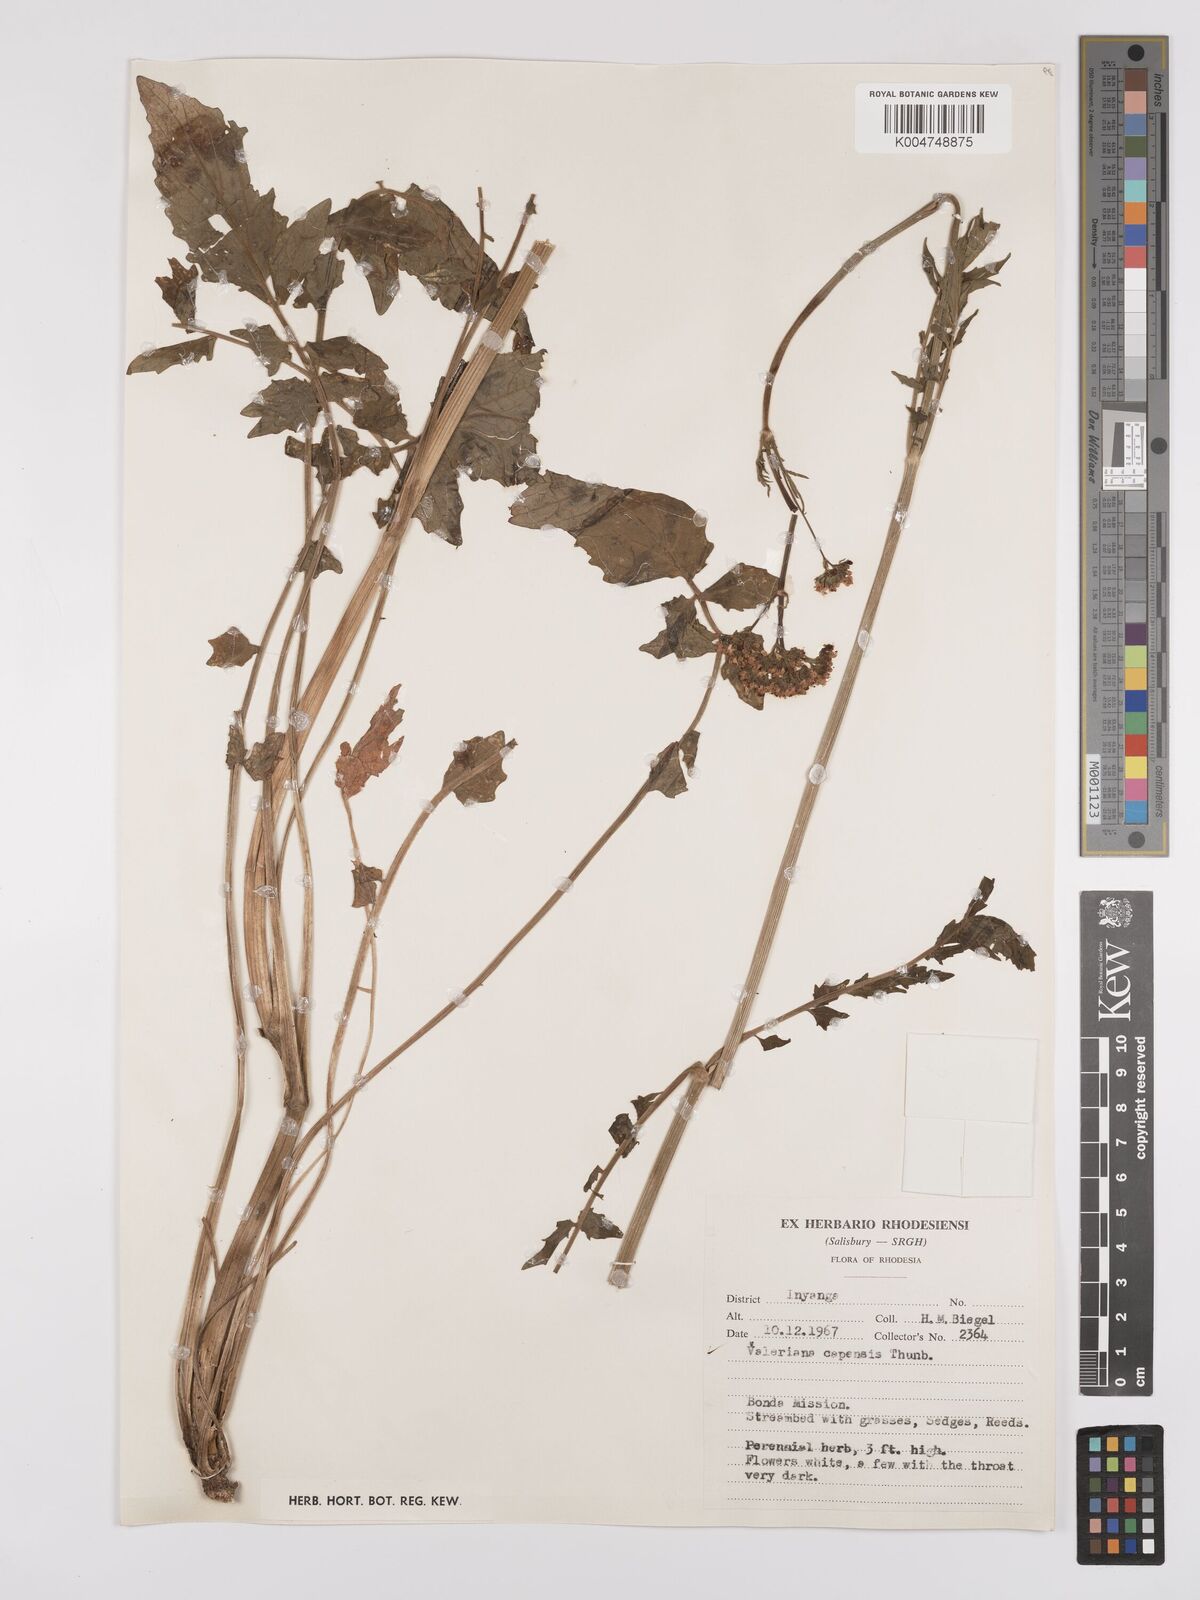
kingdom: Plantae
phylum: Tracheophyta
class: Magnoliopsida
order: Dipsacales
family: Caprifoliaceae
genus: Valeriana
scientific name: Valeriana capensis
